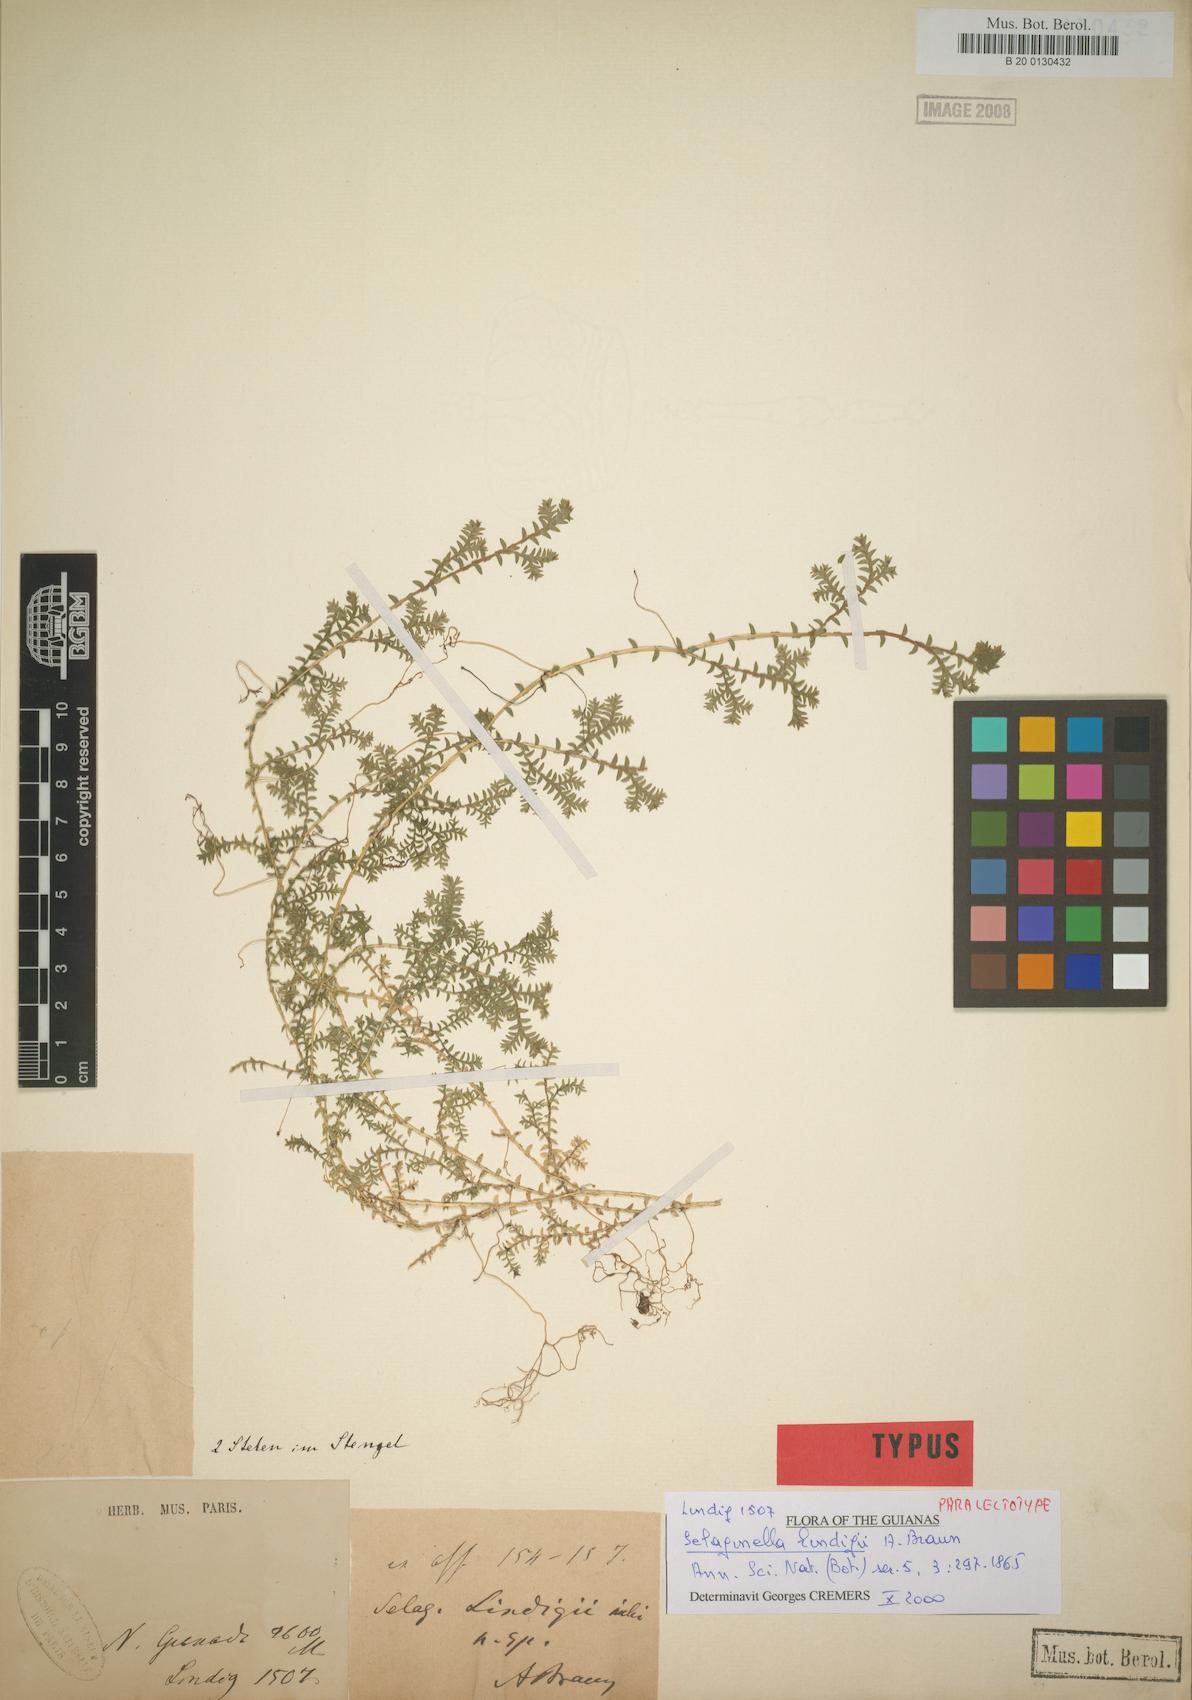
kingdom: Plantae
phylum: Tracheophyta
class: Lycopodiopsida
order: Selaginellales
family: Selaginellaceae
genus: Selaginella
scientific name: Selaginella lingulata
